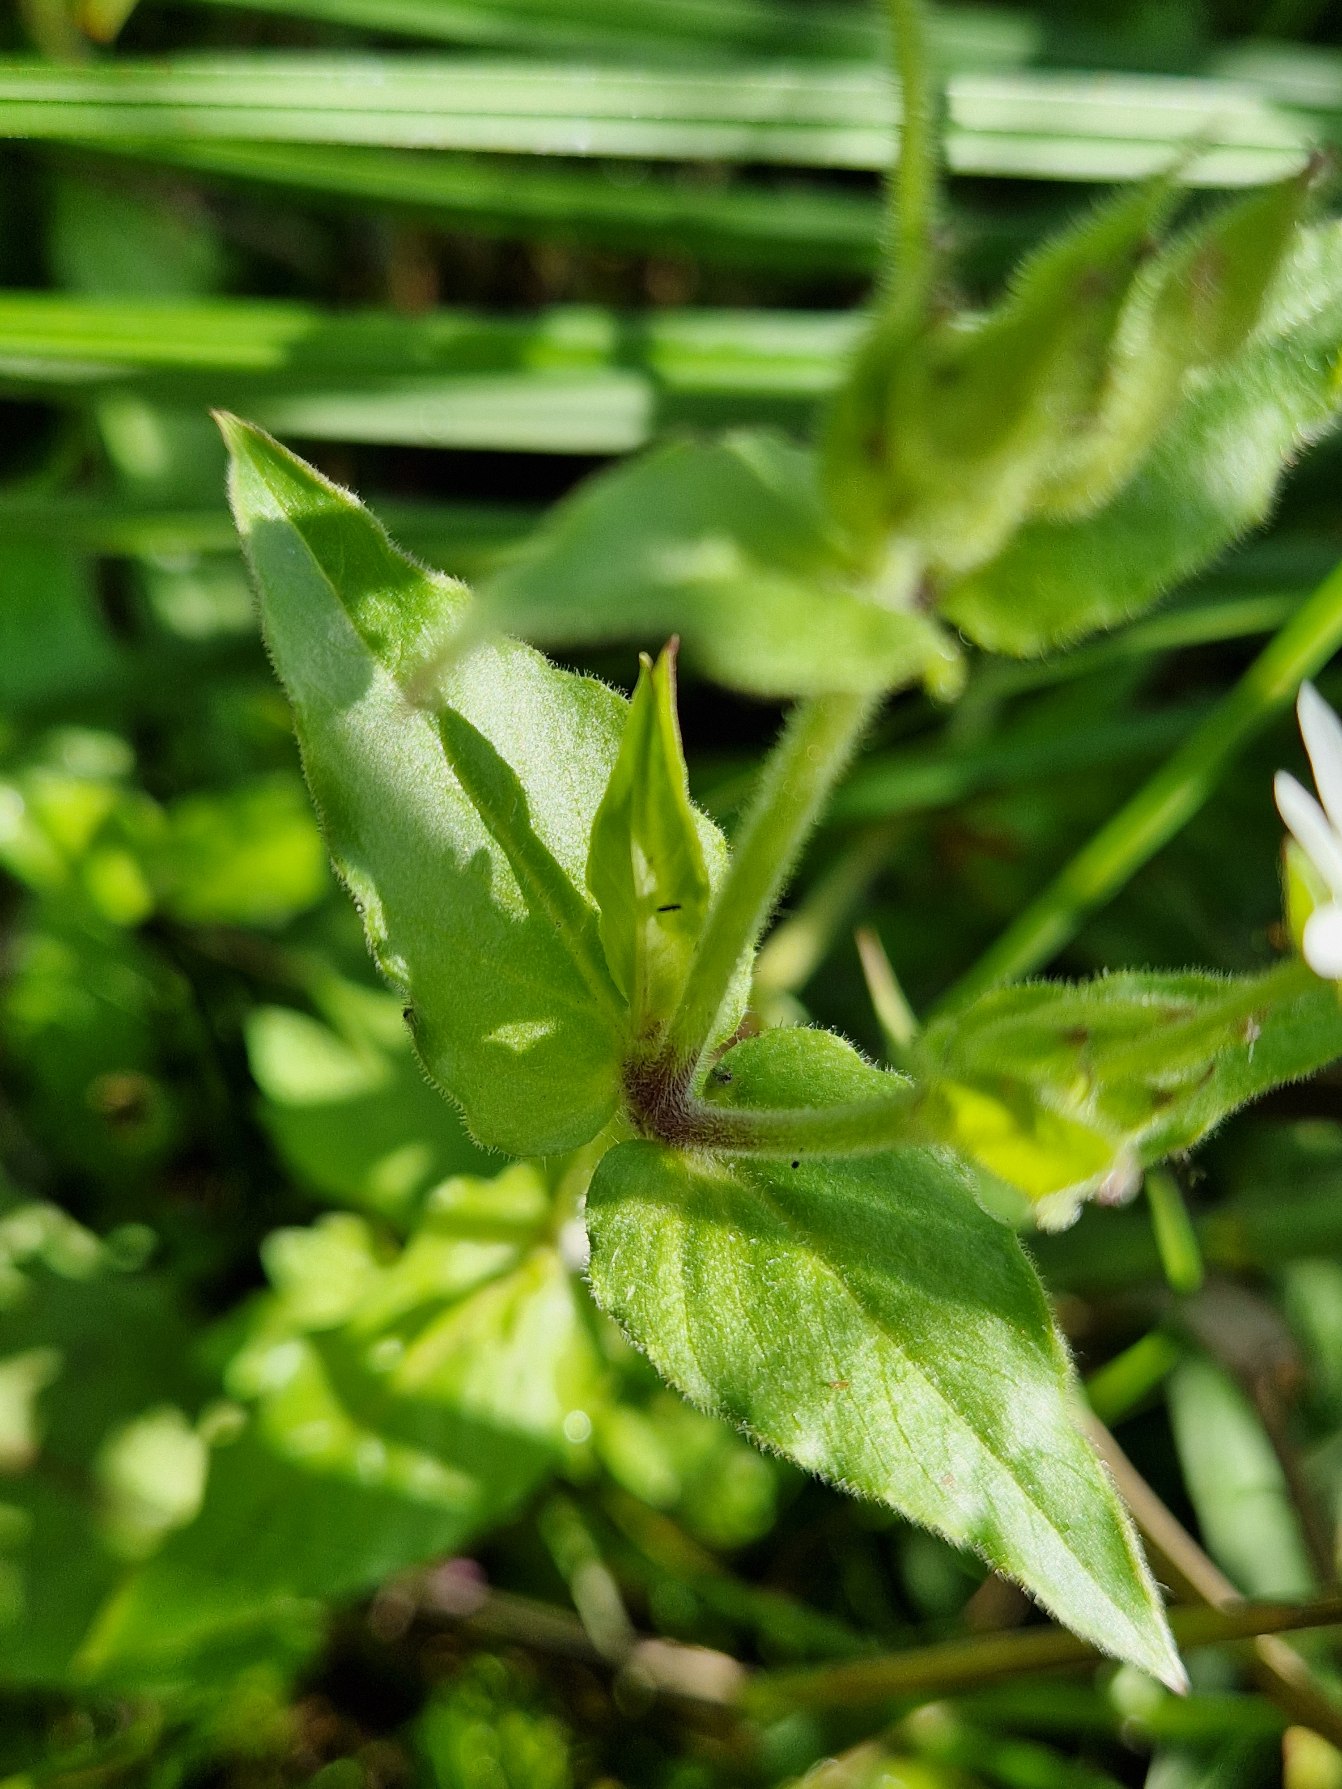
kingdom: Plantae
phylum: Tracheophyta
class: Magnoliopsida
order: Caryophyllales
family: Caryophyllaceae
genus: Stellaria
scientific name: Stellaria aquatica
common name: Kløvkrone
